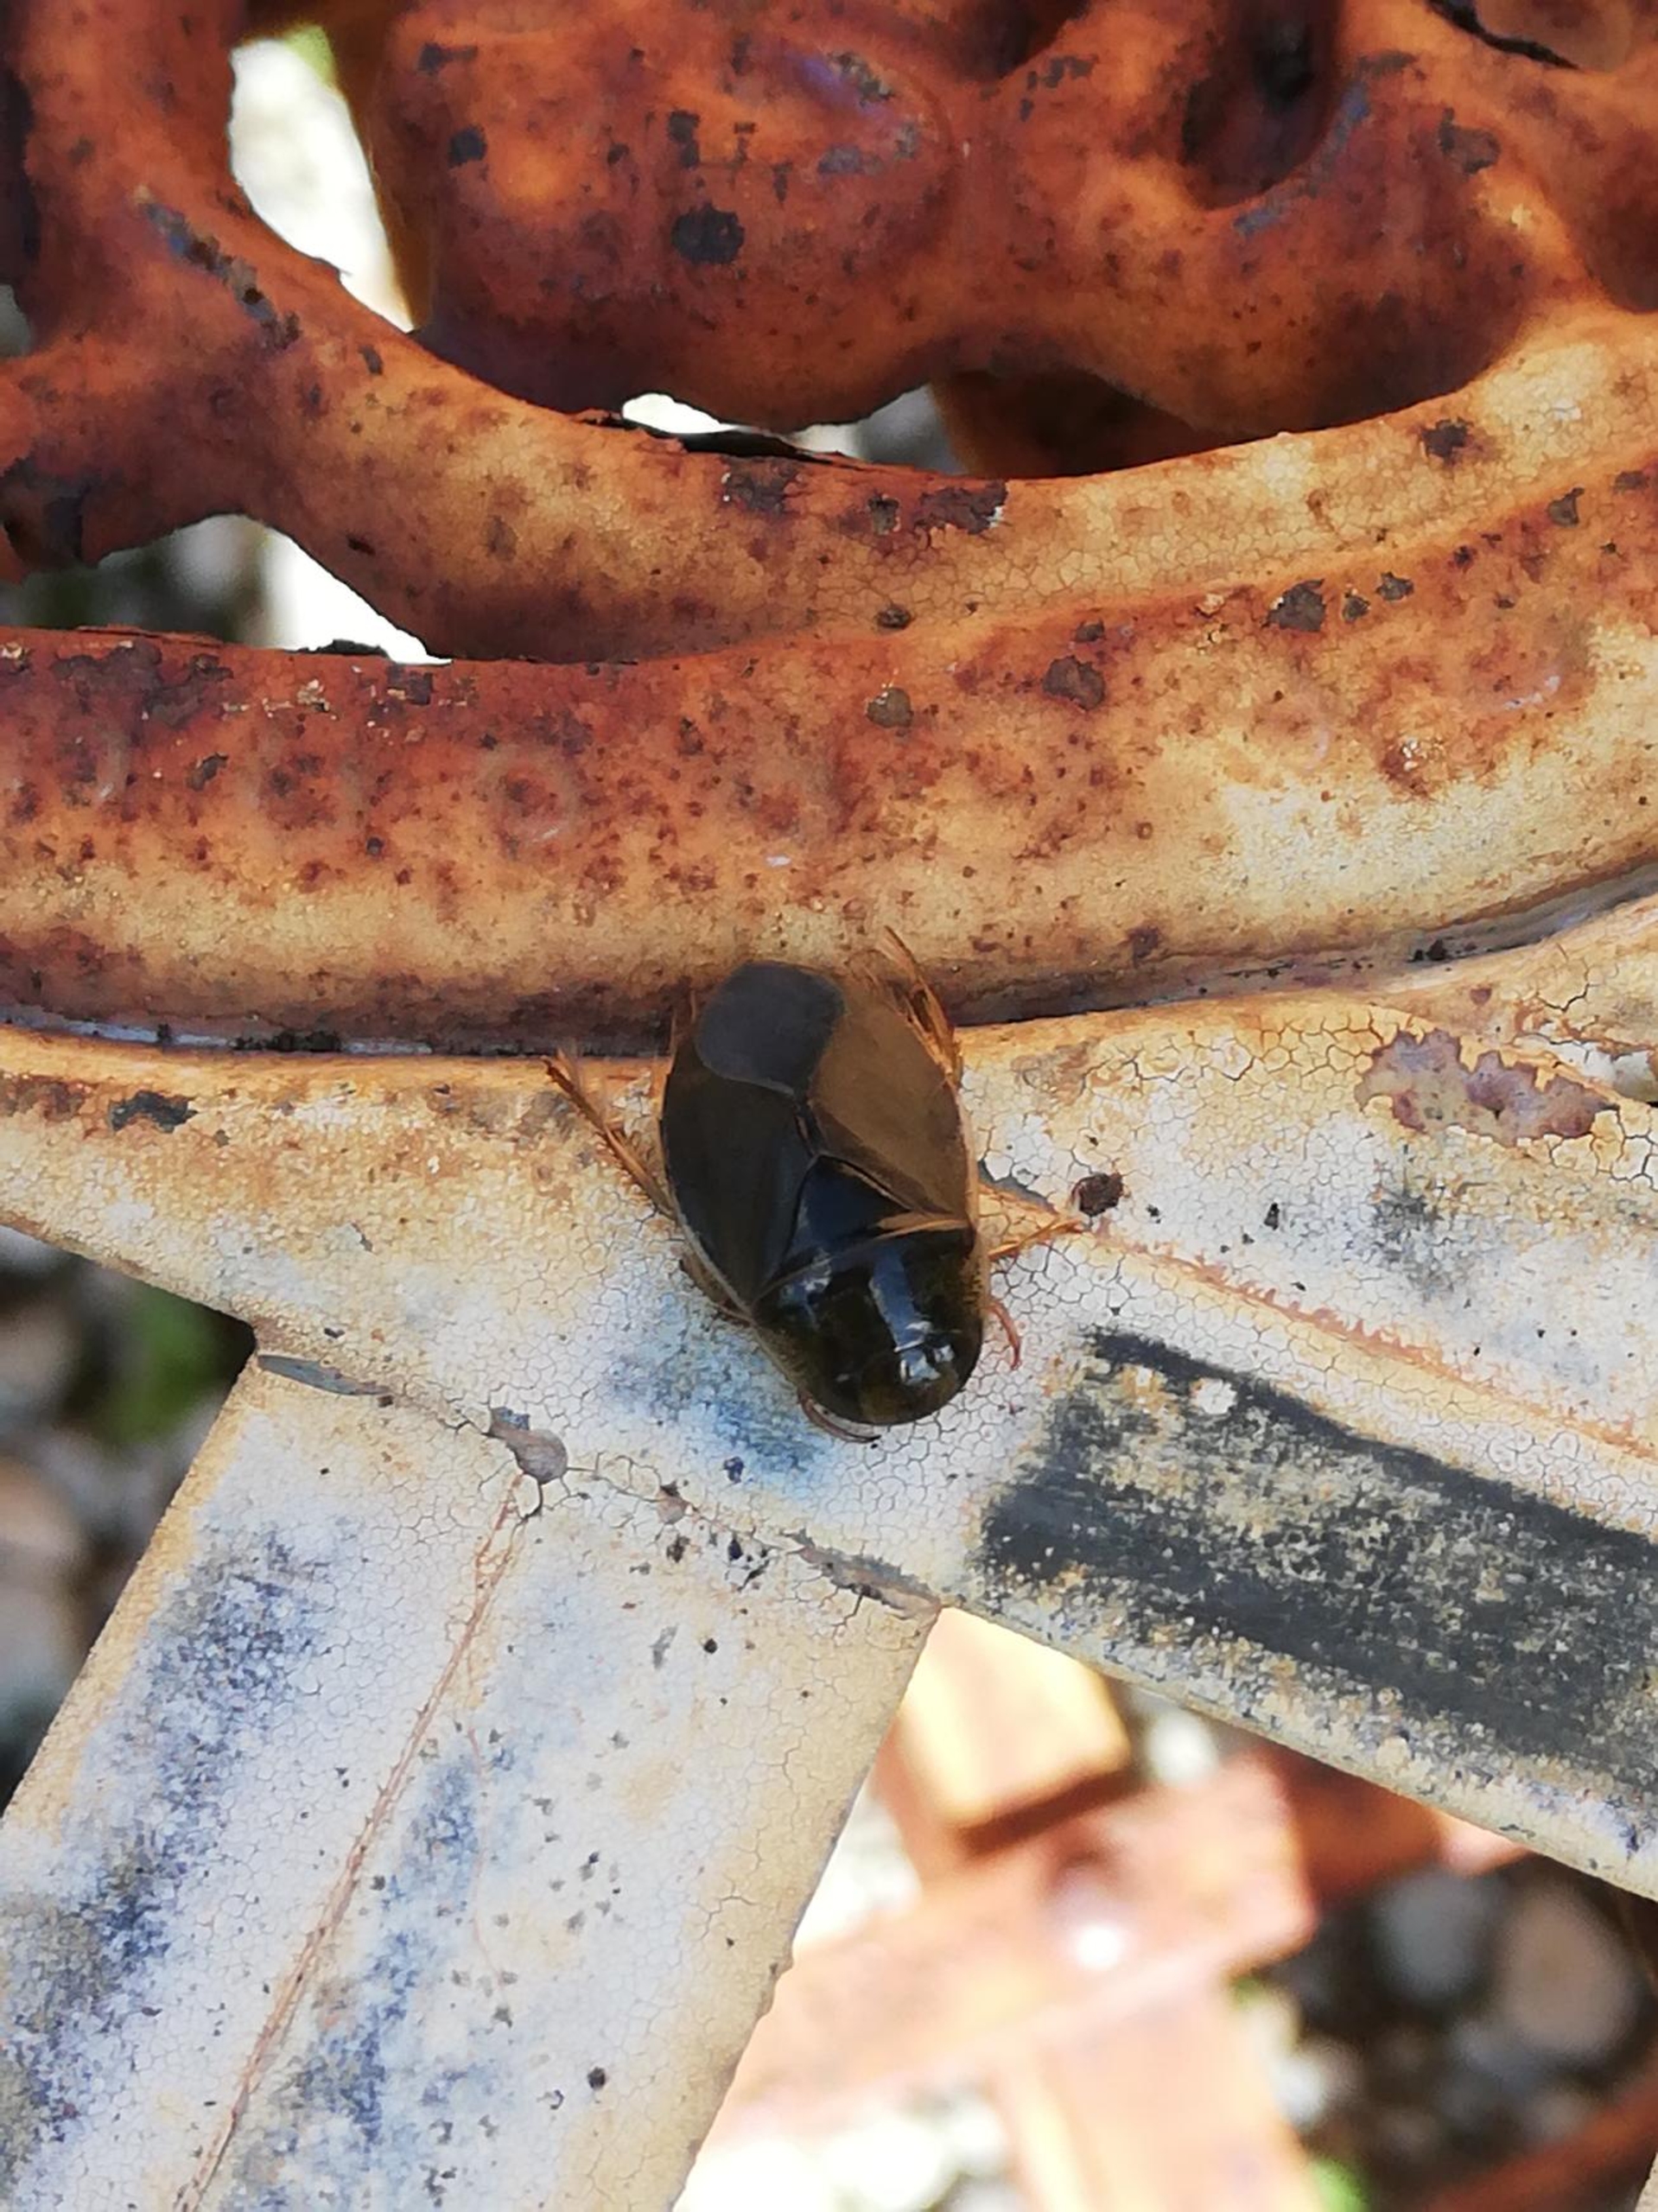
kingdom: Animalia
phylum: Arthropoda
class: Insecta
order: Hemiptera
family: Naucoridae
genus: Ilyocoris
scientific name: Ilyocoris cimicoides
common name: Vandrøver
